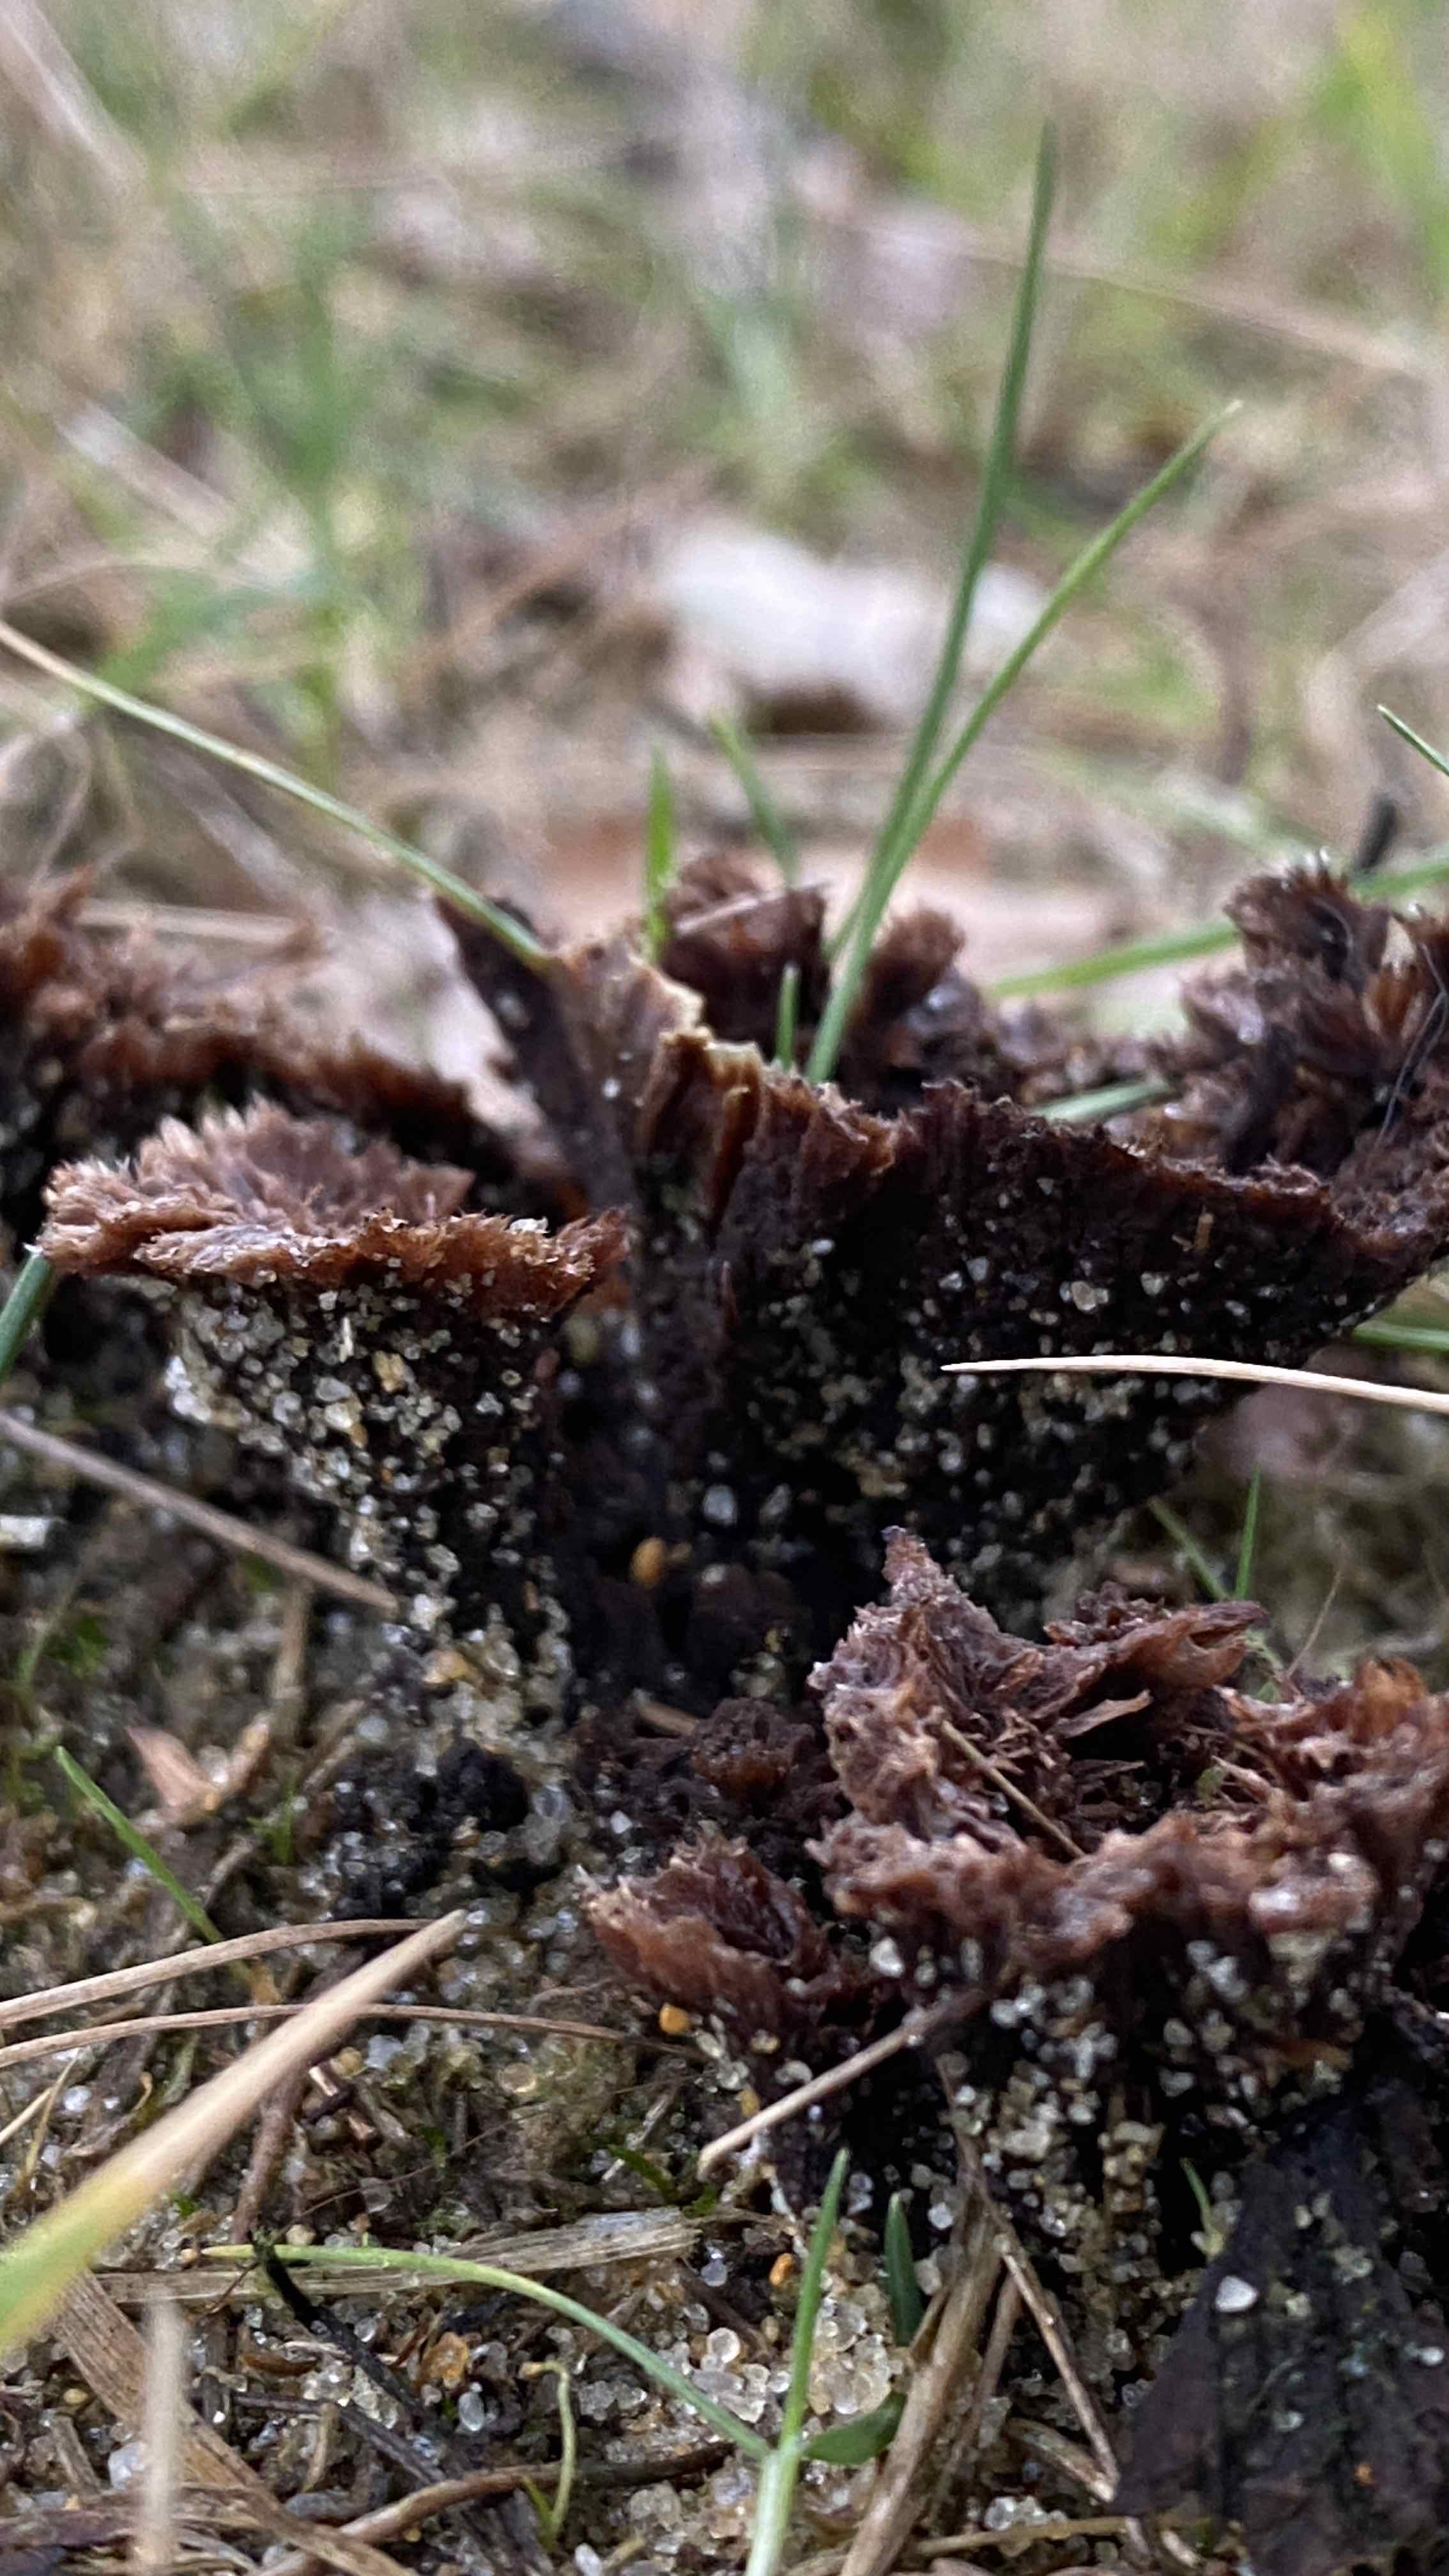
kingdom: Fungi
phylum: Basidiomycota
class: Agaricomycetes
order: Thelephorales
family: Thelephoraceae
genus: Thelephora
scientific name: Thelephora terrestris
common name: fliget frynsesvamp
